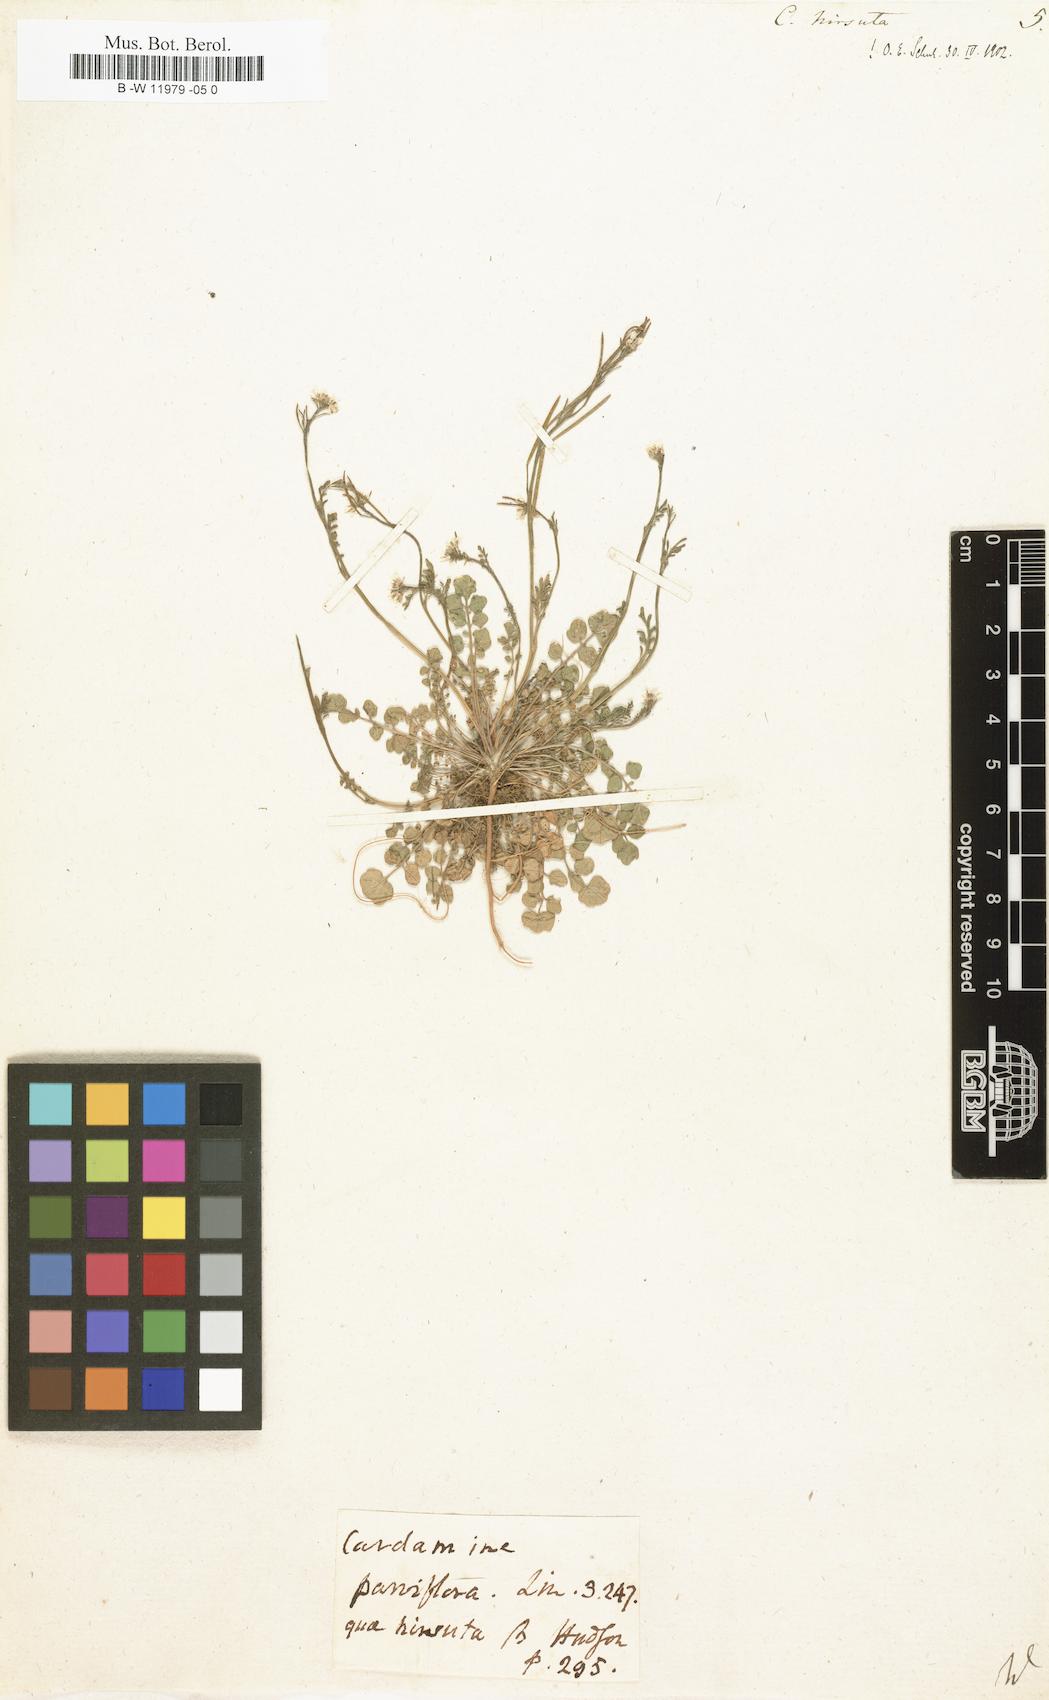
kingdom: Plantae
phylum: Tracheophyta
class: Magnoliopsida
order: Brassicales
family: Brassicaceae
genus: Cardamine
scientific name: Cardamine hirsuta
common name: Hairy bittercress
